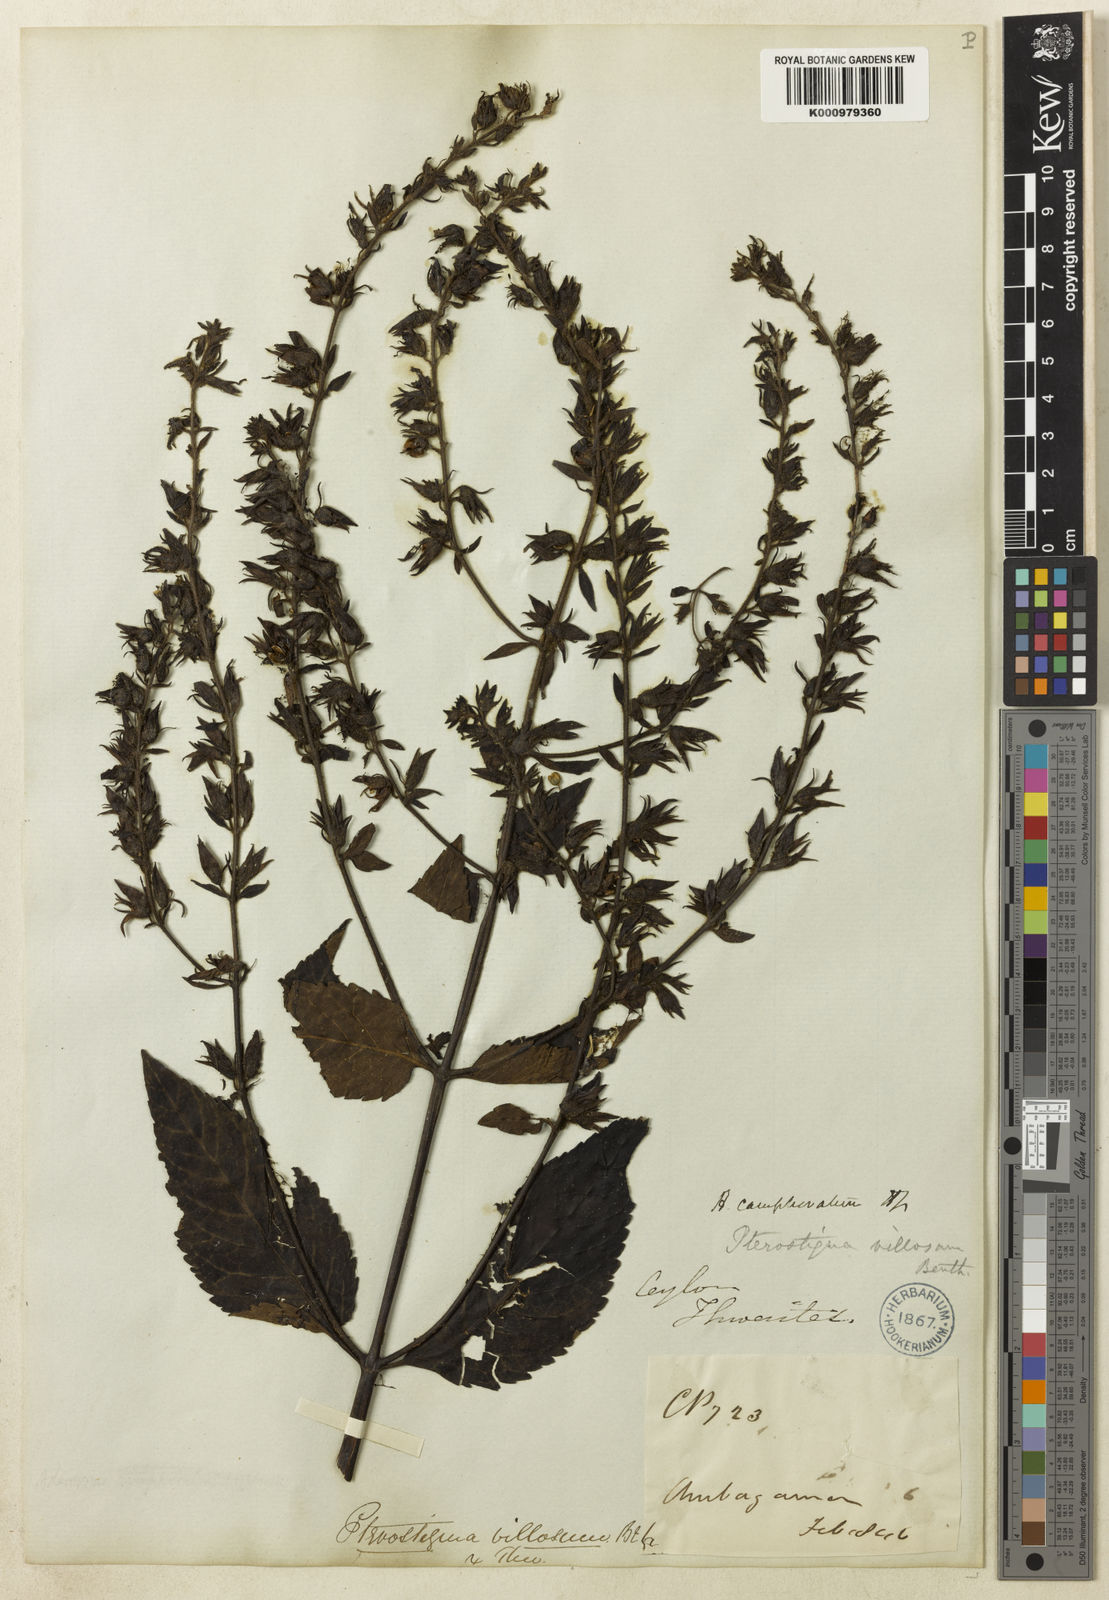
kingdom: Plantae
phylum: Tracheophyta
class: Magnoliopsida
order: Lamiales
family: Plantaginaceae
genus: Adenosma
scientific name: Adenosma camphorata
